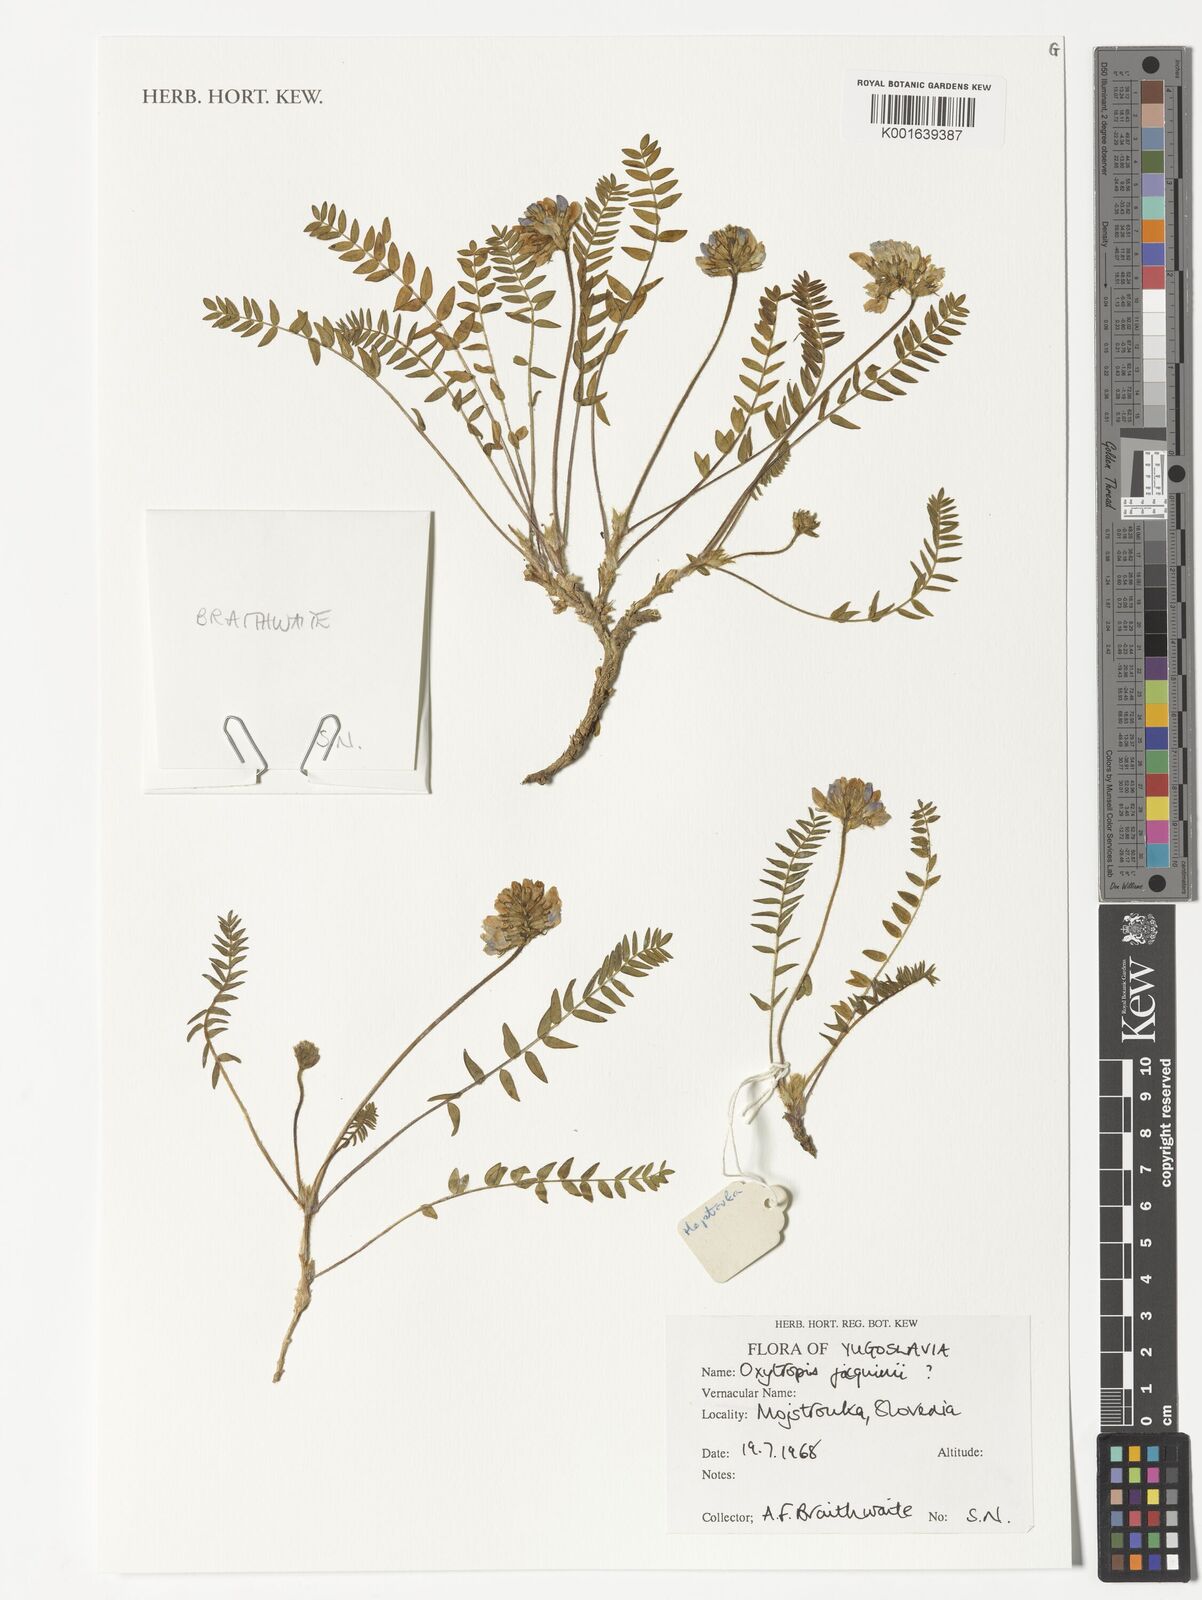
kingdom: Plantae
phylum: Tracheophyta
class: Magnoliopsida
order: Fabales
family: Fabaceae
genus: Oxytropis
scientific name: Oxytropis montana
